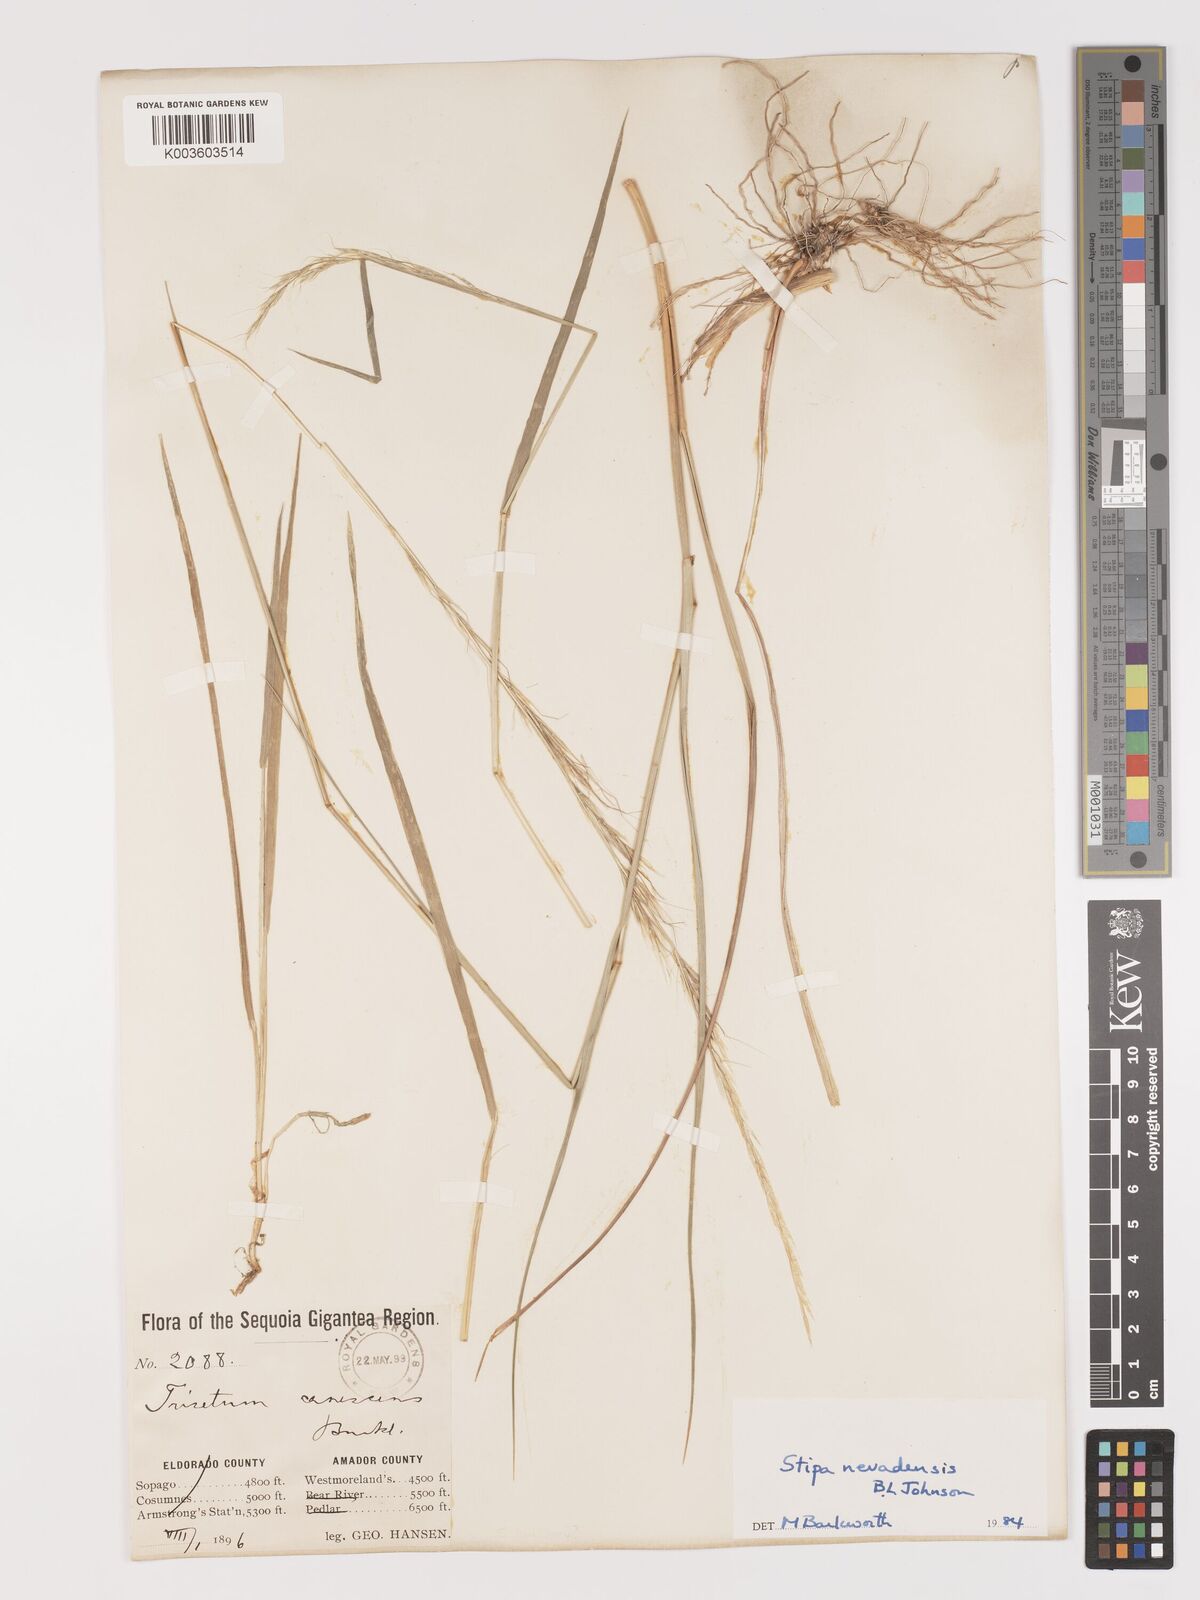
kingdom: Plantae
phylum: Tracheophyta
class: Liliopsida
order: Poales
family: Poaceae
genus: Eriocoma
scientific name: Eriocoma nevadensis
